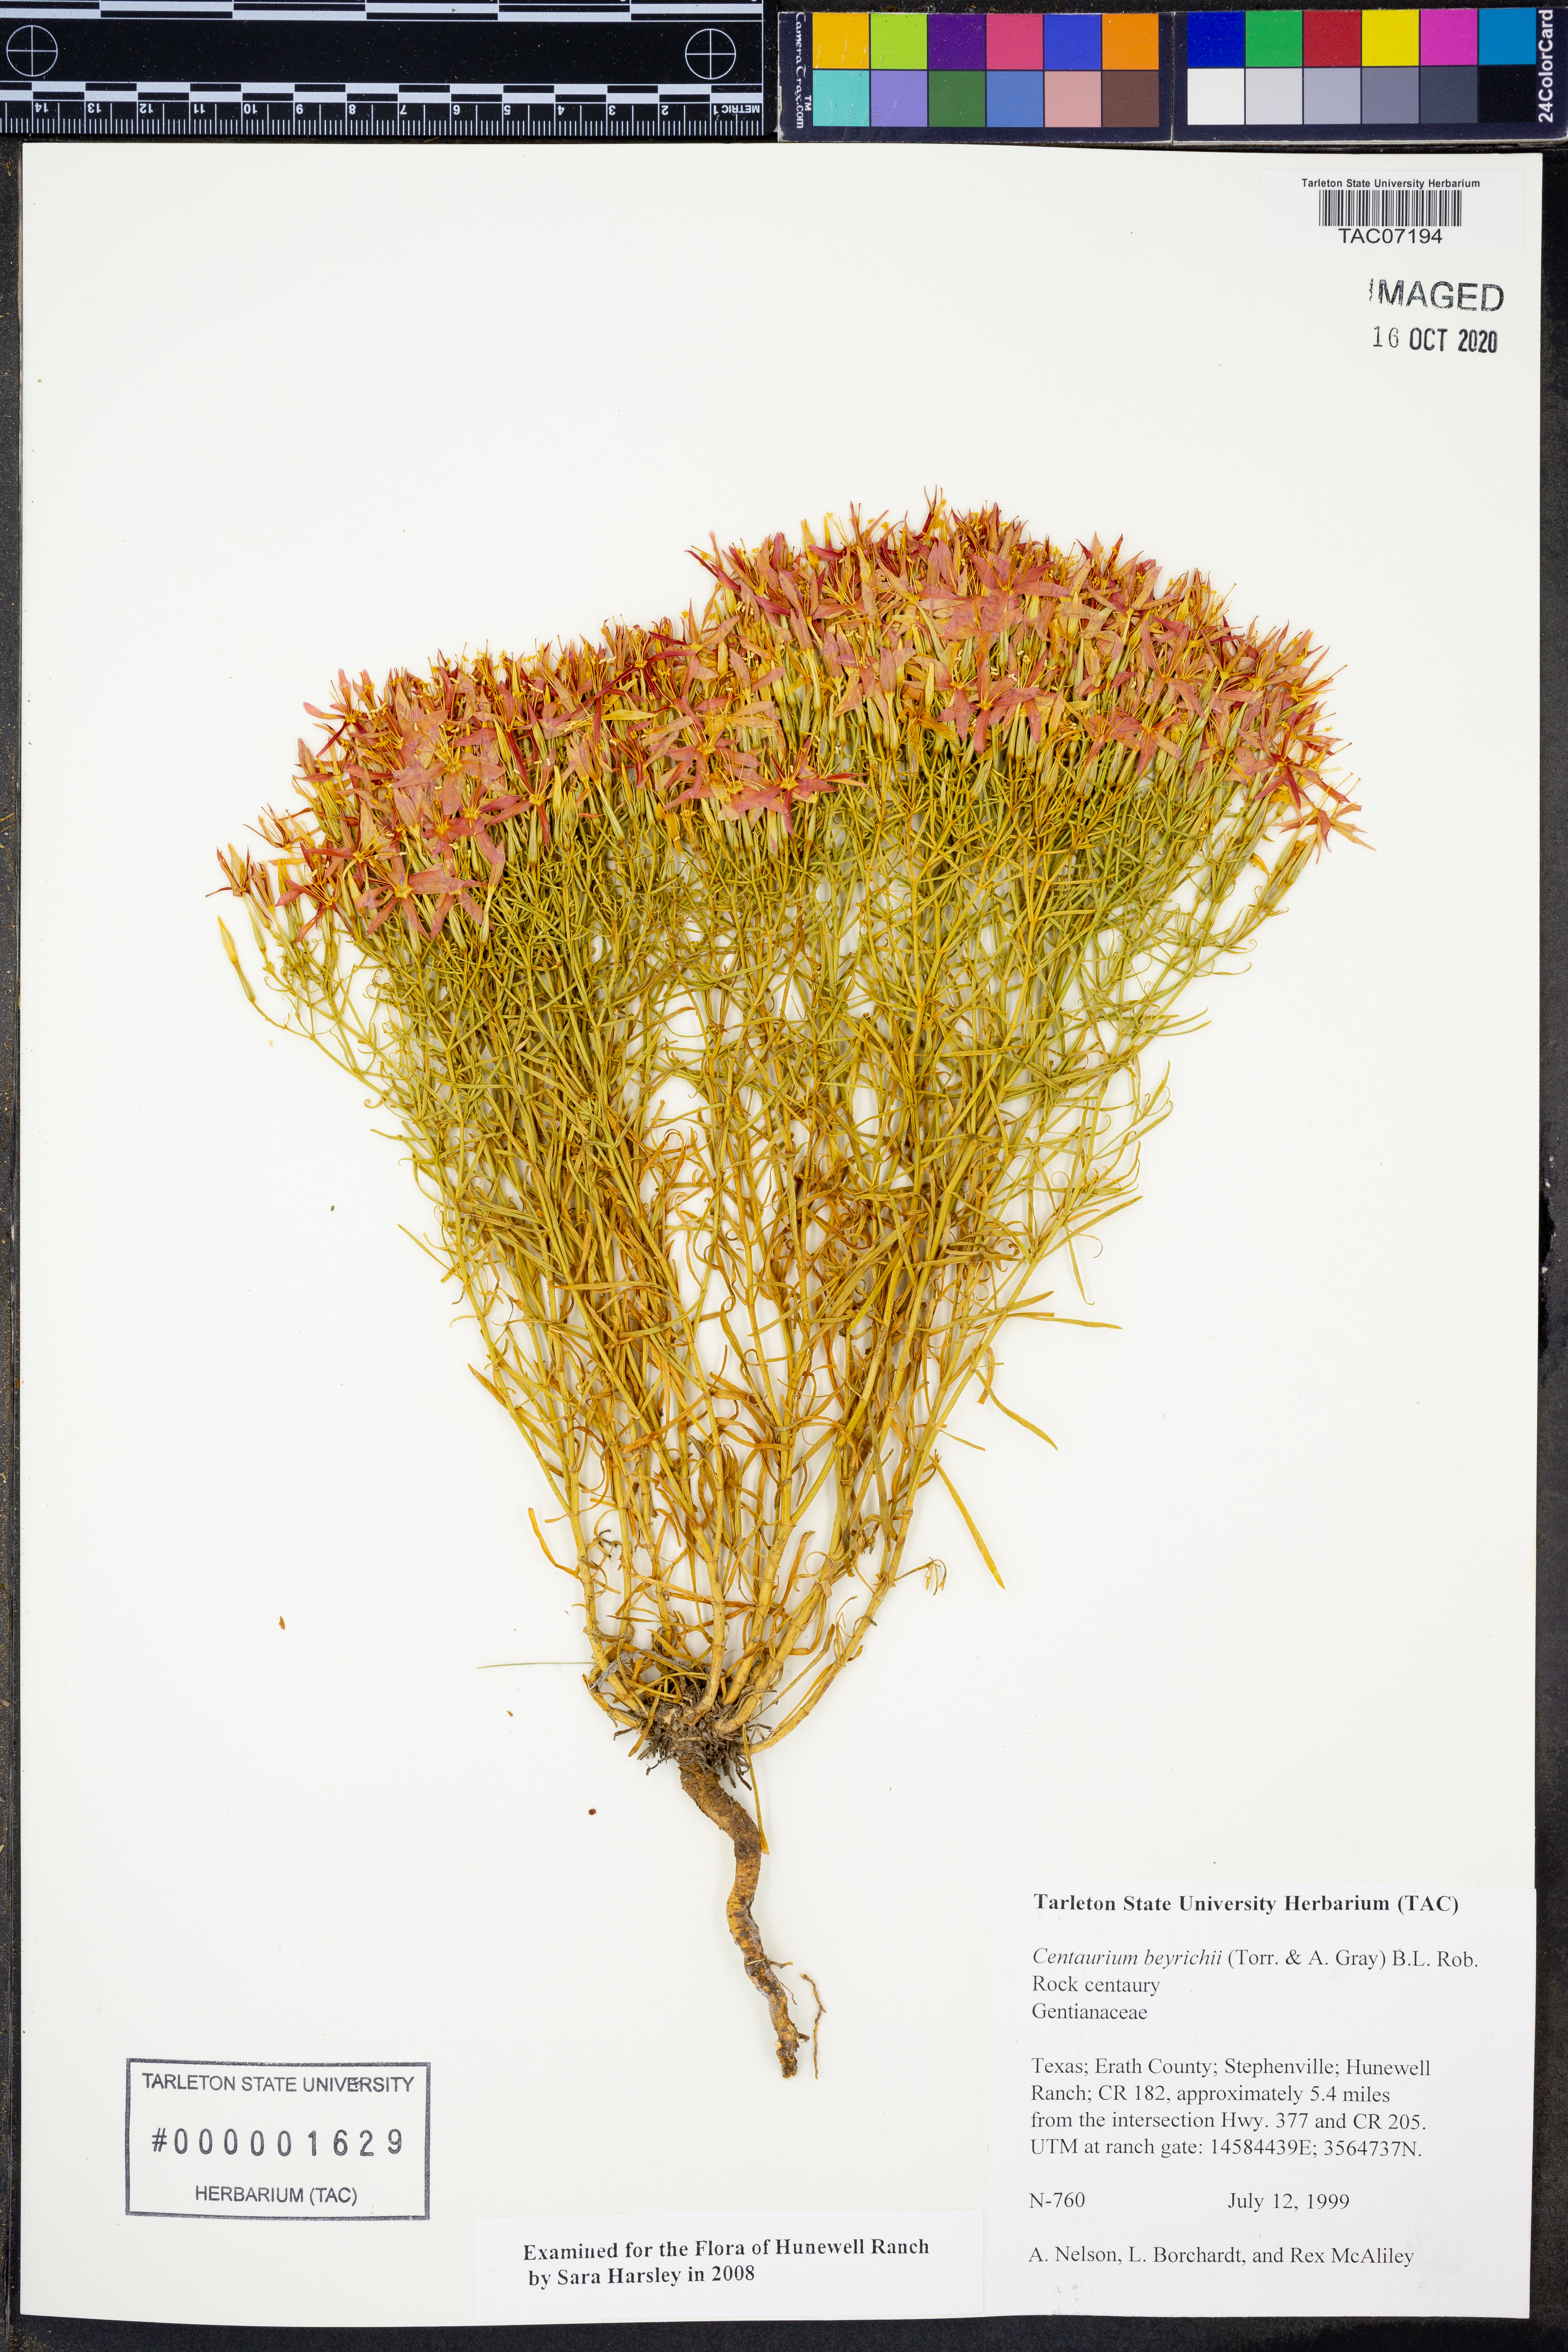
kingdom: Plantae
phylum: Tracheophyta
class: Magnoliopsida
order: Gentianales
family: Gentianaceae
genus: Zeltnera
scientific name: Zeltnera beyrichii
